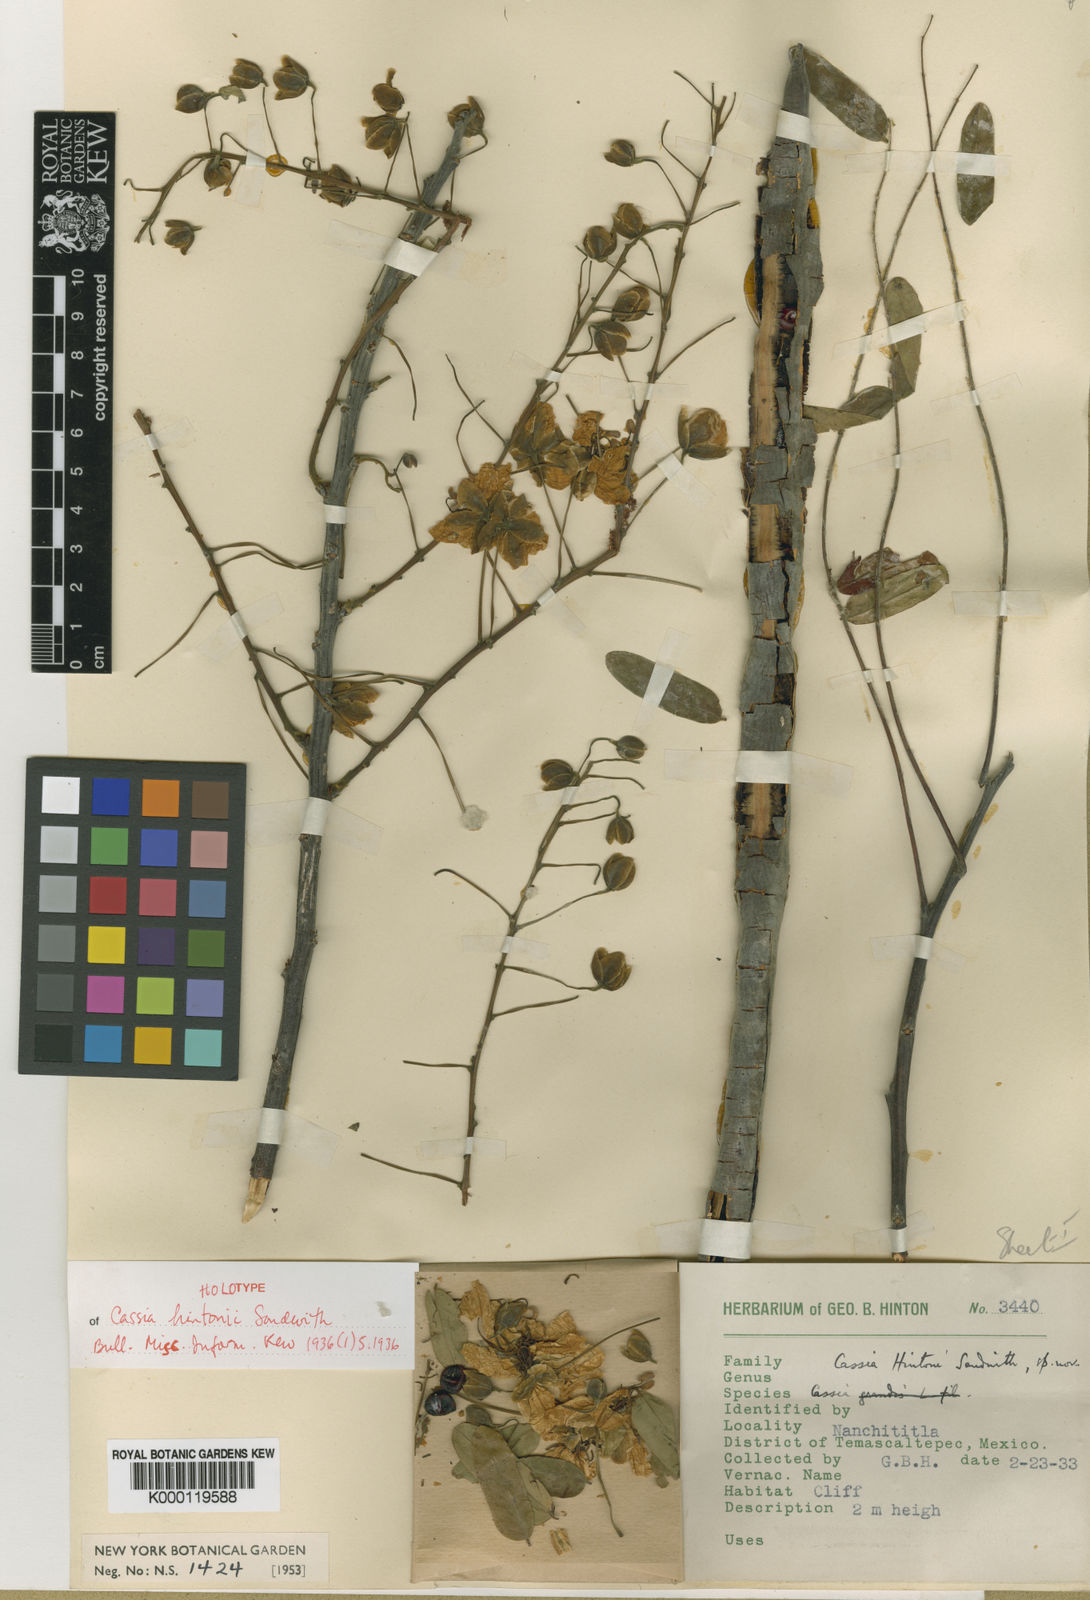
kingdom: Plantae
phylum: Tracheophyta
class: Magnoliopsida
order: Fabales
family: Fabaceae
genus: Cassia
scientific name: Cassia hintonii
